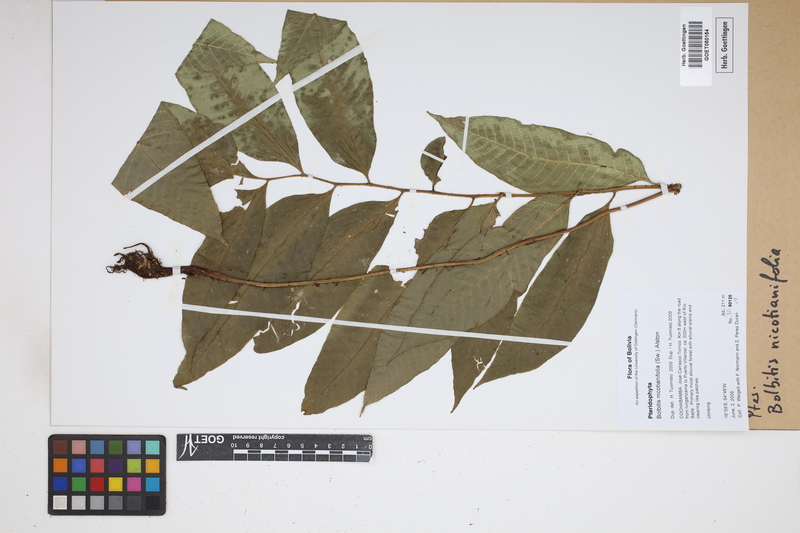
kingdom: Plantae
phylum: Tracheophyta
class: Polypodiopsida
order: Polypodiales
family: Dryopteridaceae
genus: Mickelia
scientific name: Mickelia nicotianifolia
